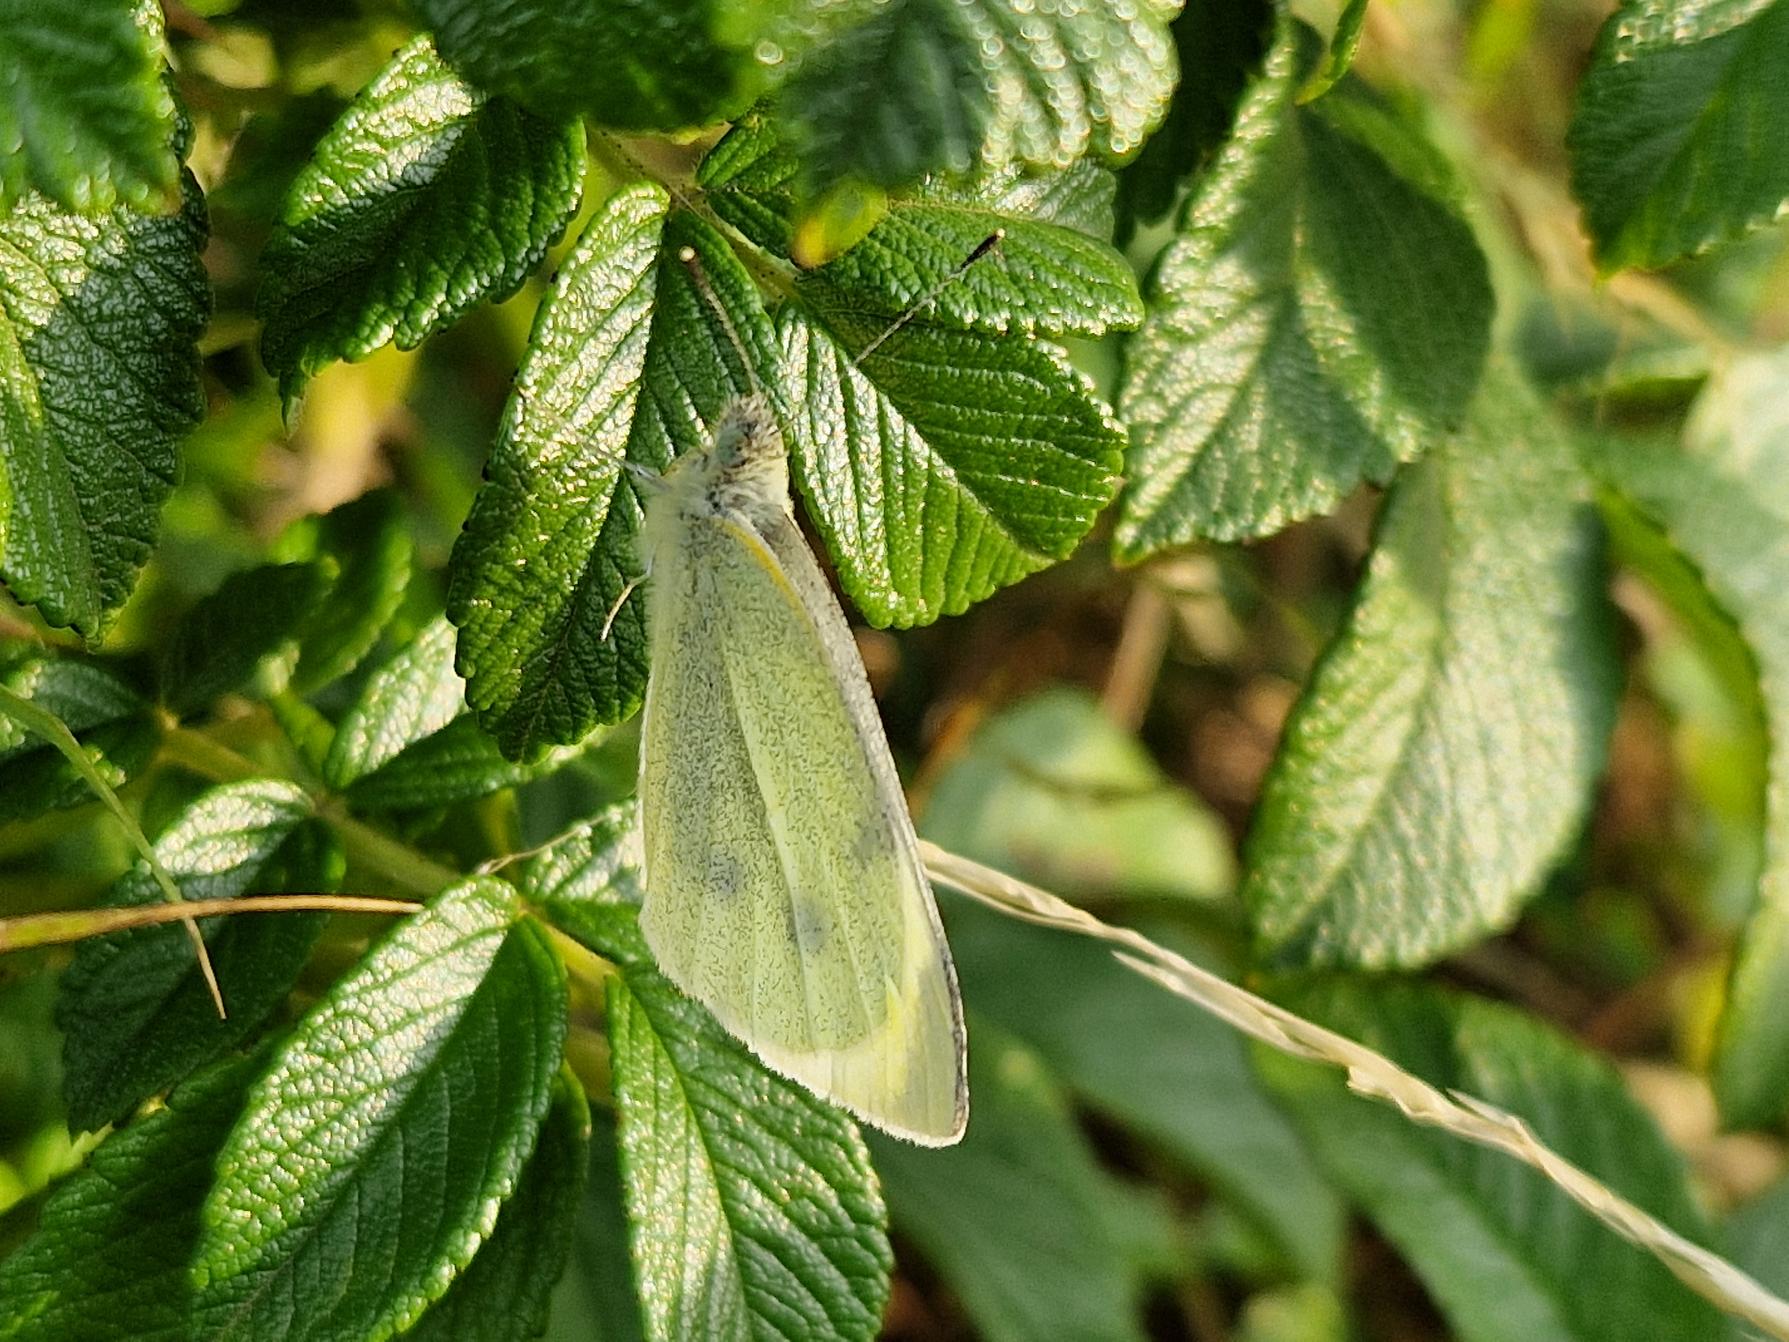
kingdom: Animalia
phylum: Arthropoda
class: Insecta
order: Lepidoptera
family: Pieridae
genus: Pieris
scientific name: Pieris rapae
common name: Lille kålsommerfugl
